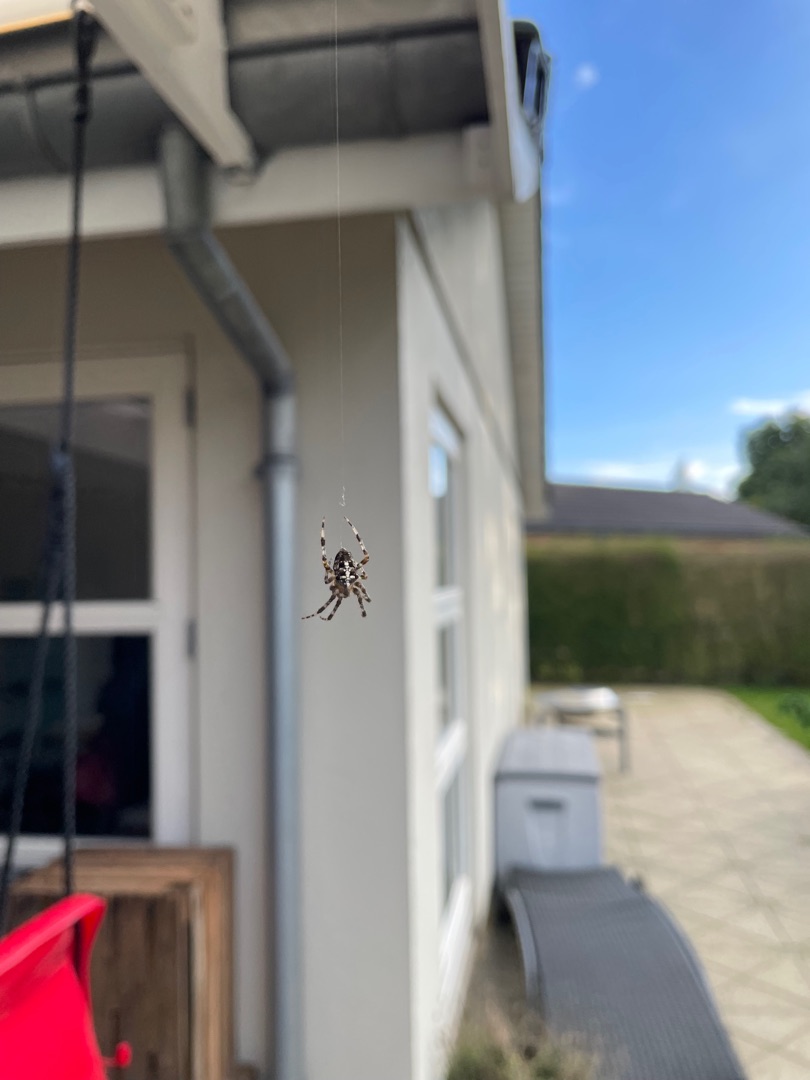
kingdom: Animalia
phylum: Arthropoda
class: Arachnida
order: Araneae
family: Araneidae
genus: Araneus
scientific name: Araneus diadematus
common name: Korsedderkop
